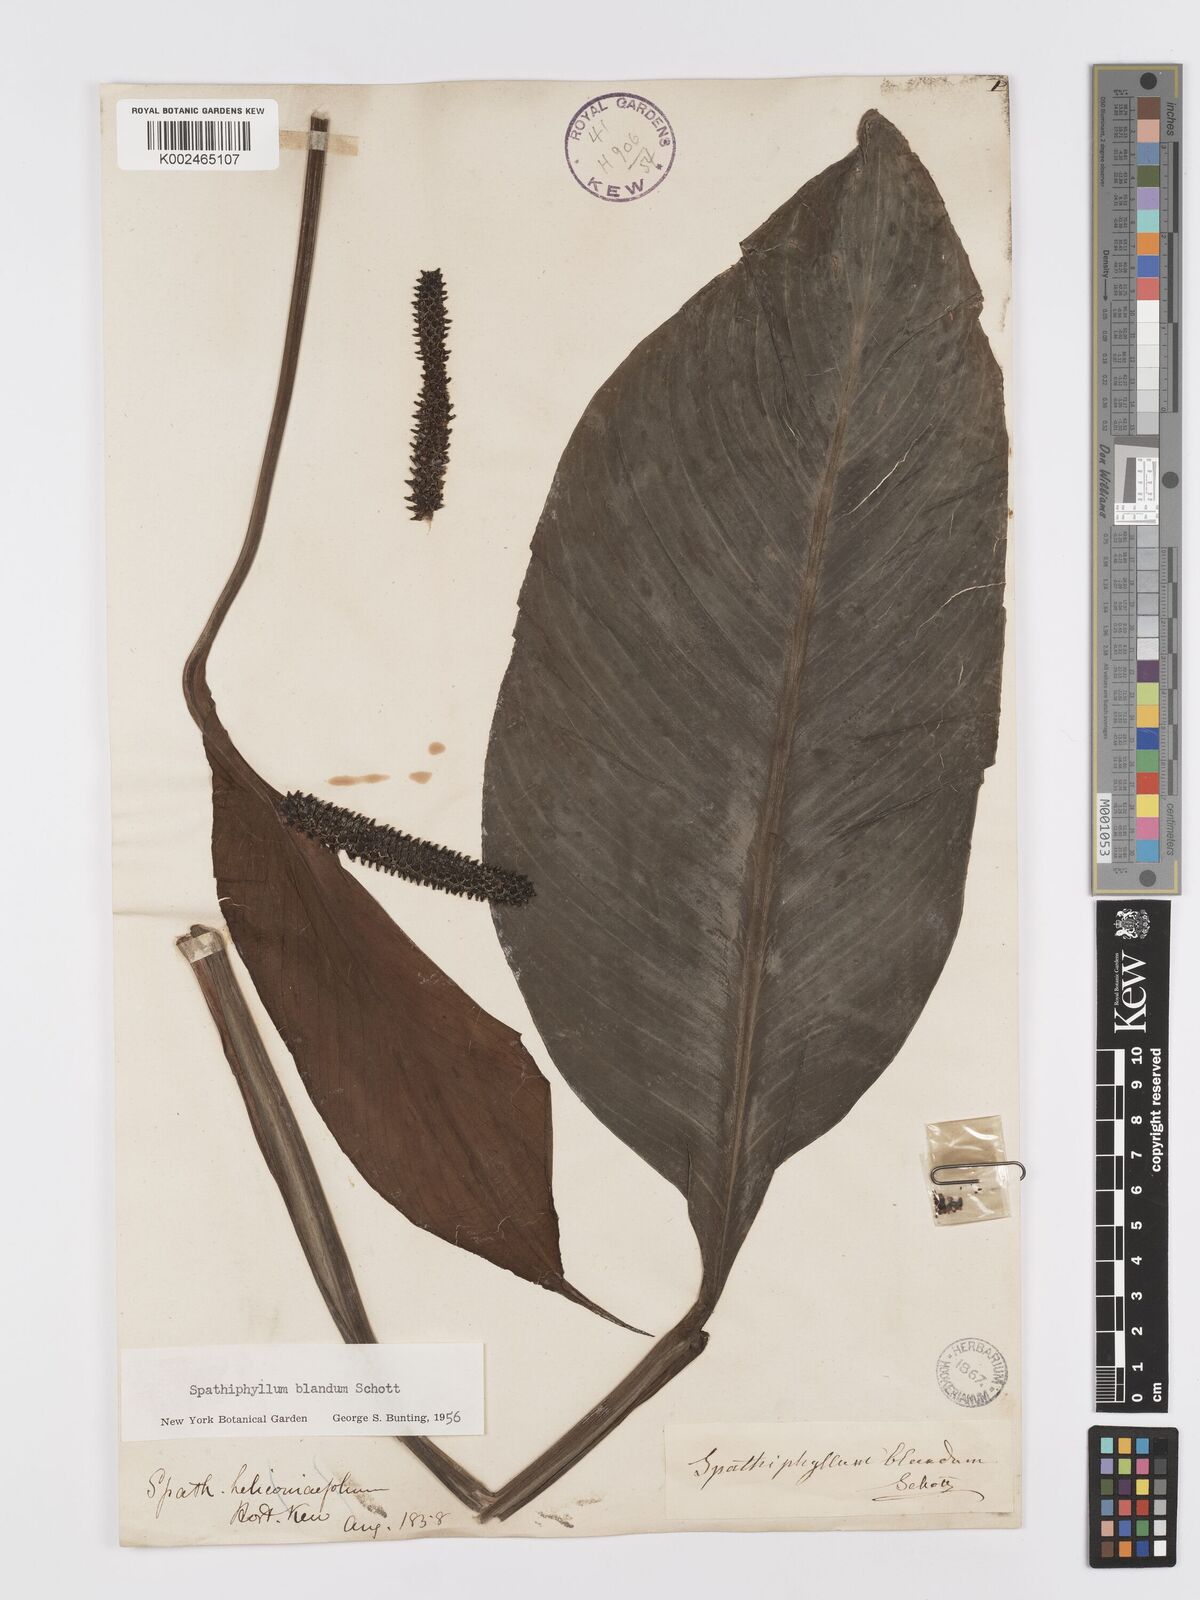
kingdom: Plantae
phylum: Tracheophyta
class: Liliopsida
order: Alismatales
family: Araceae
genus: Spathiphyllum
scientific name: Spathiphyllum blandum
